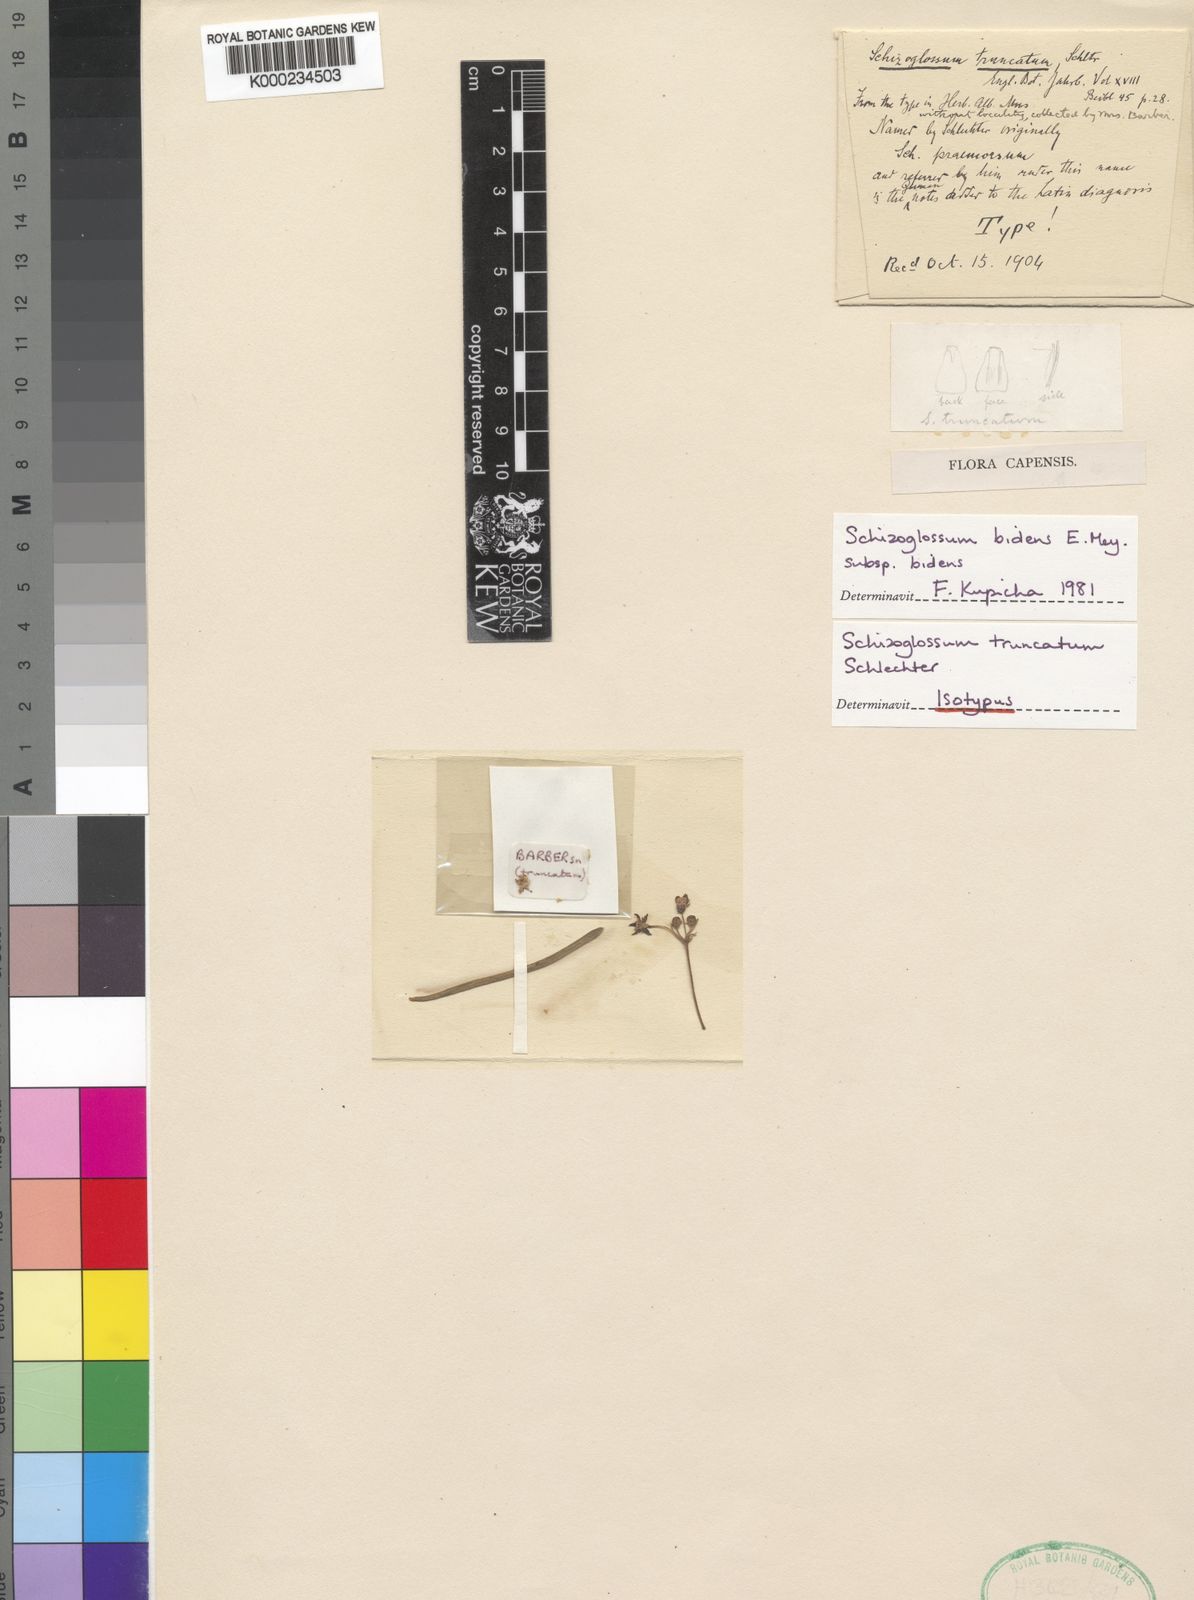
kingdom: Plantae
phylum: Tracheophyta
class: Magnoliopsida
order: Gentianales
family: Apocynaceae
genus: Schizoglossum
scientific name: Schizoglossum bidens
